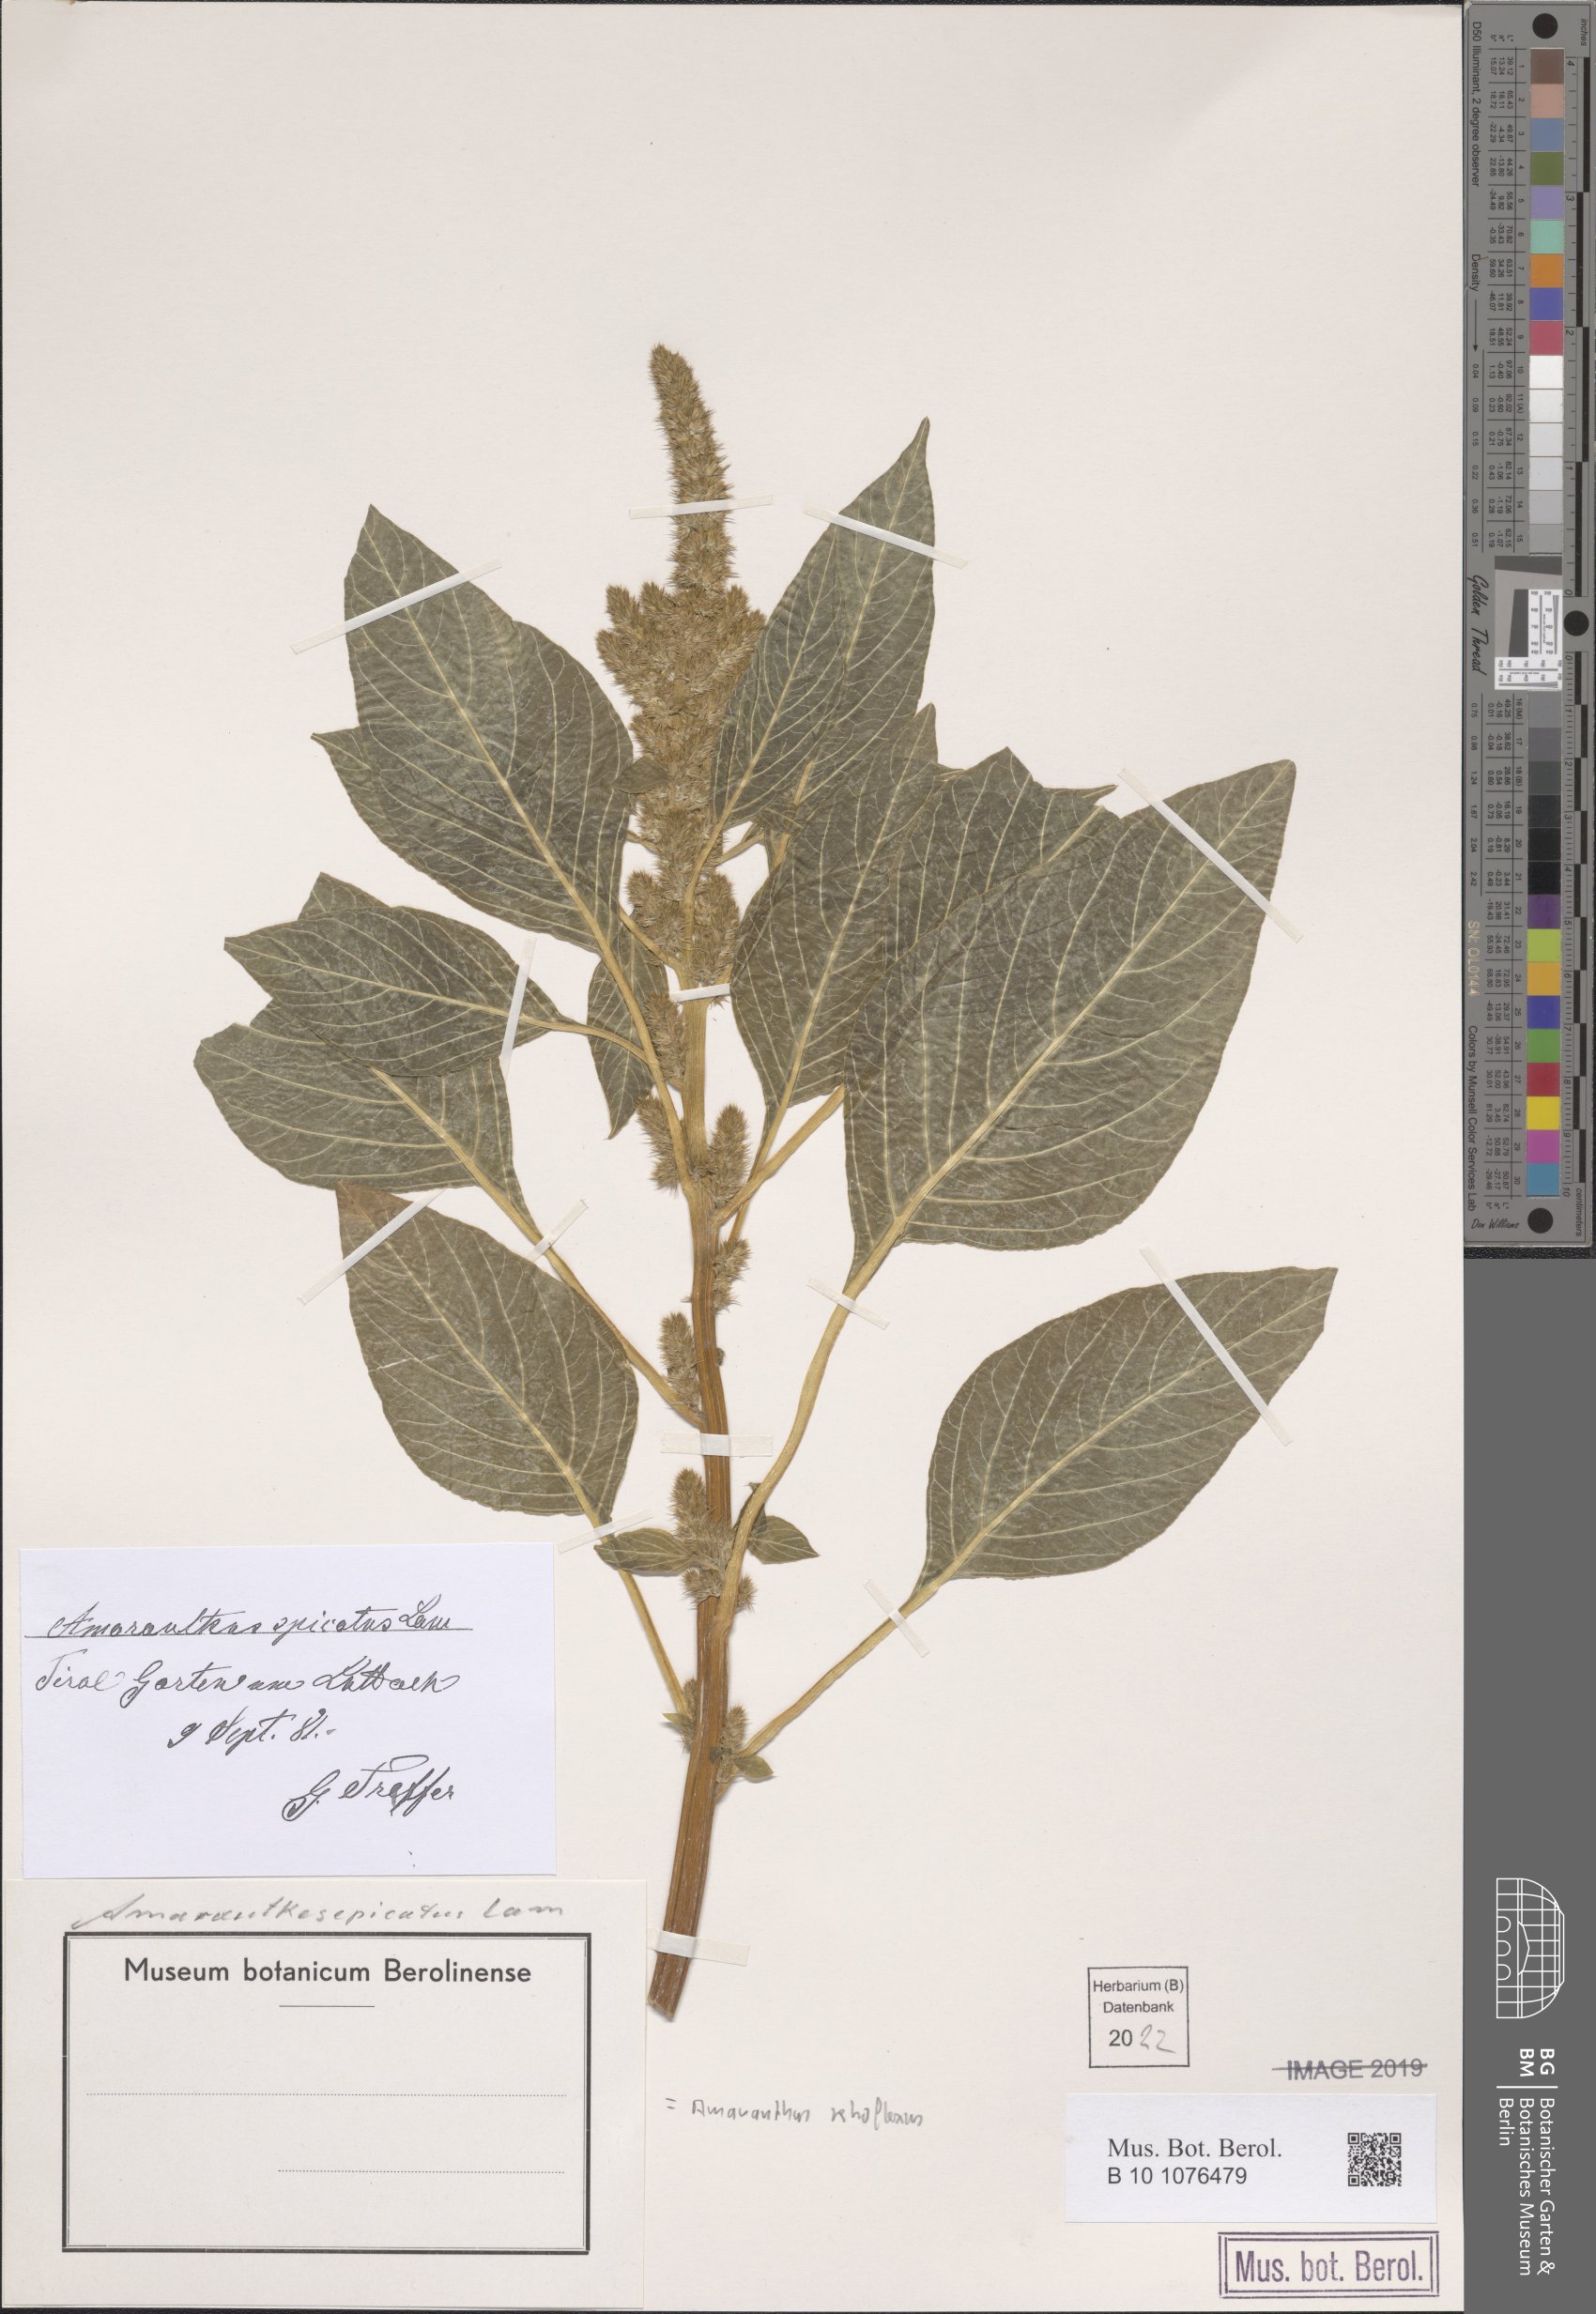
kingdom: Plantae
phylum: Tracheophyta
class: Magnoliopsida
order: Caryophyllales
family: Amaranthaceae
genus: Amaranthus
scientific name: Amaranthus retroflexus
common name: Redroot amaranth
